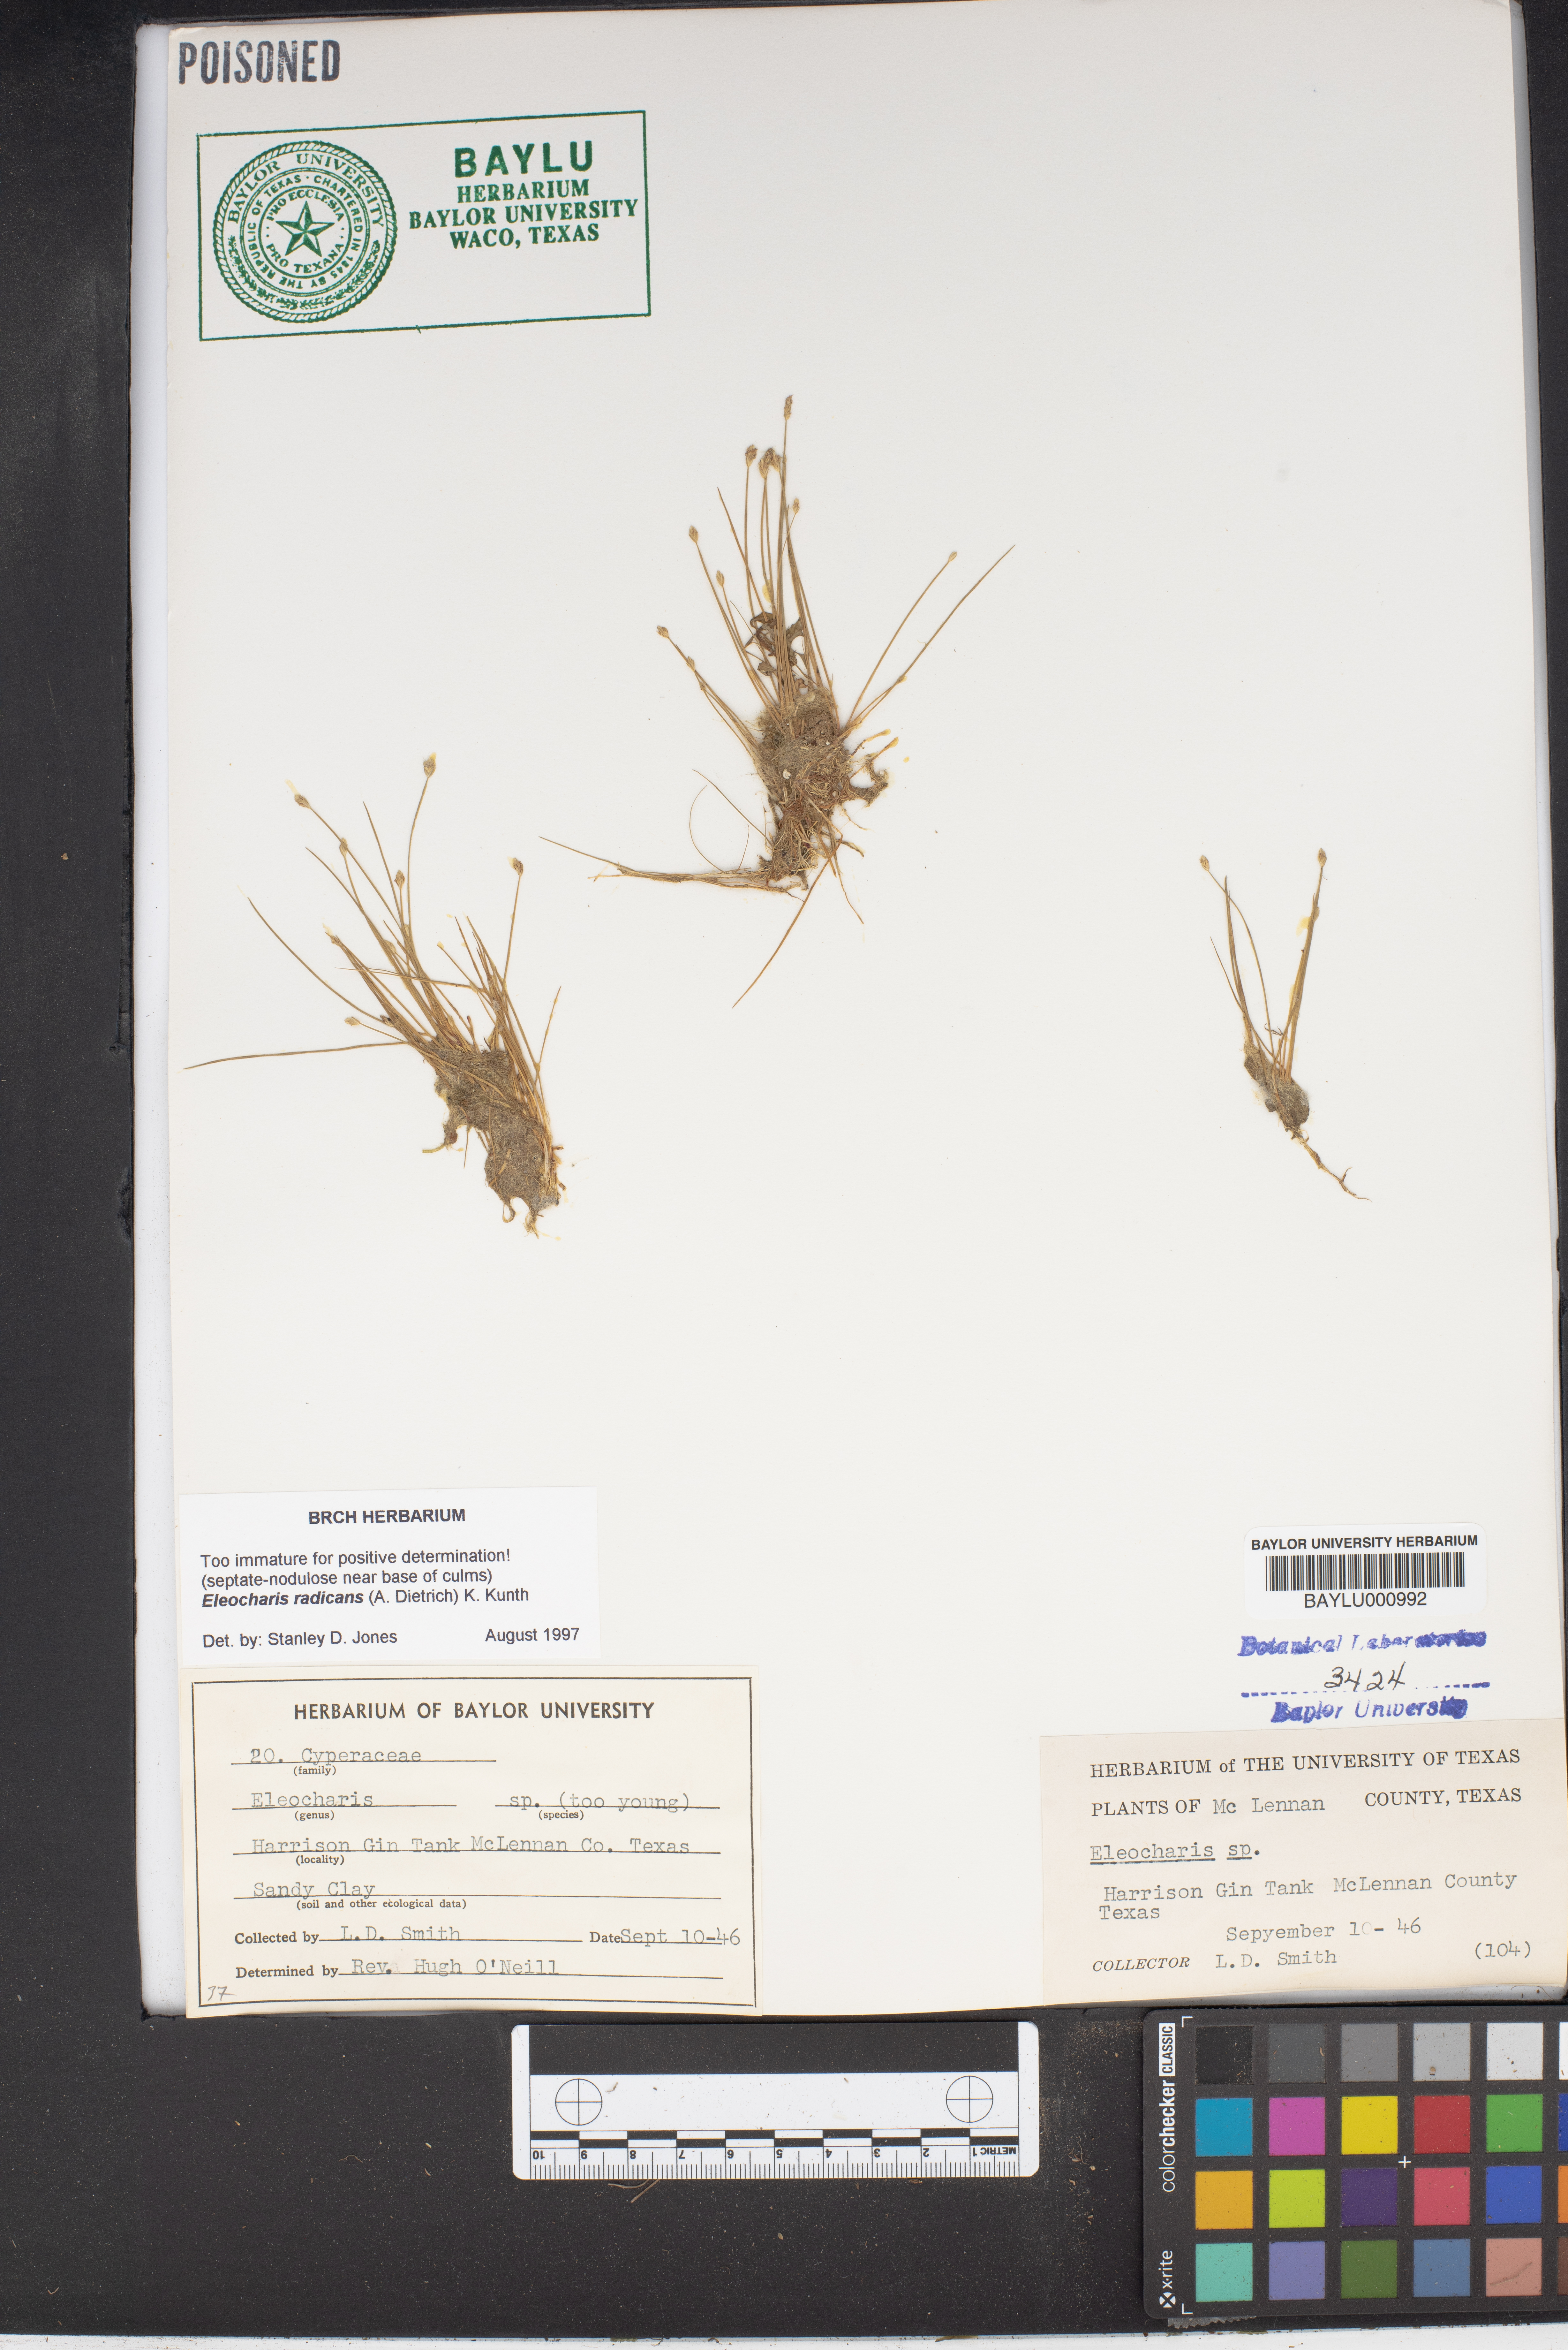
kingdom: Plantae
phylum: Tracheophyta
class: Liliopsida
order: Poales
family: Cyperaceae
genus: Eleocharis
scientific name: Eleocharis exigua
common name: Spikesedge
